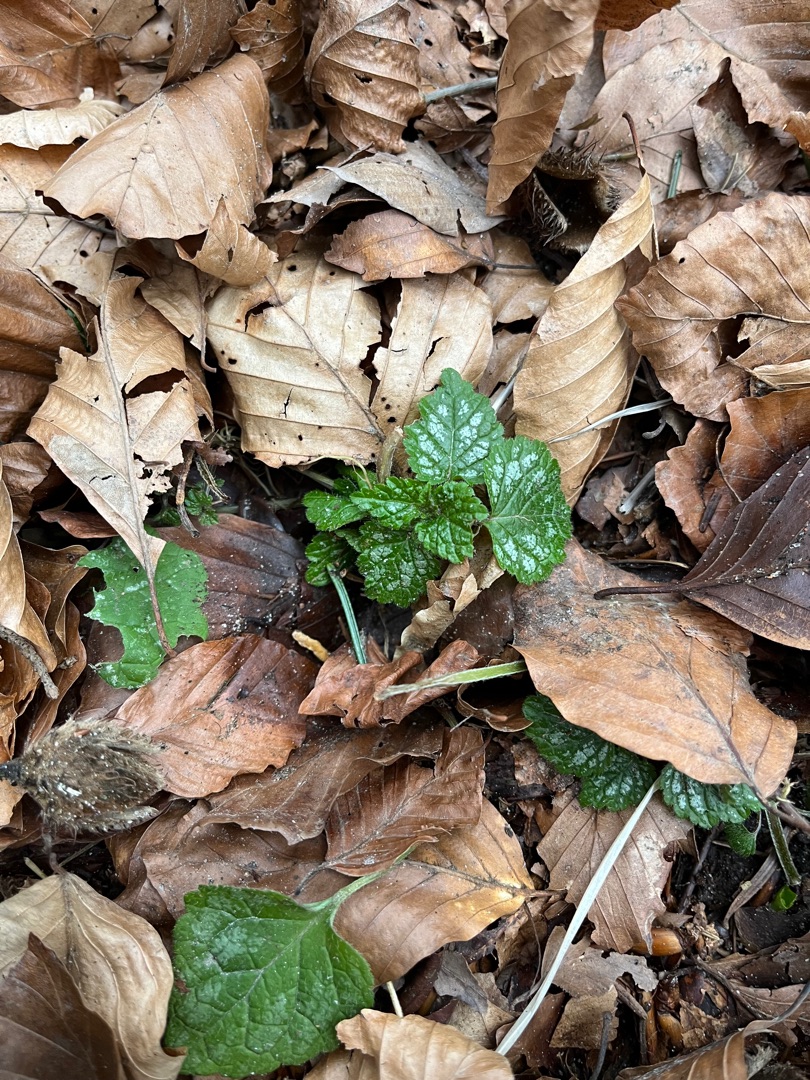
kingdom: Plantae
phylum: Tracheophyta
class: Magnoliopsida
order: Lamiales
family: Lamiaceae
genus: Lamium
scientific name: Lamium galeobdolon
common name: Guldnælde
